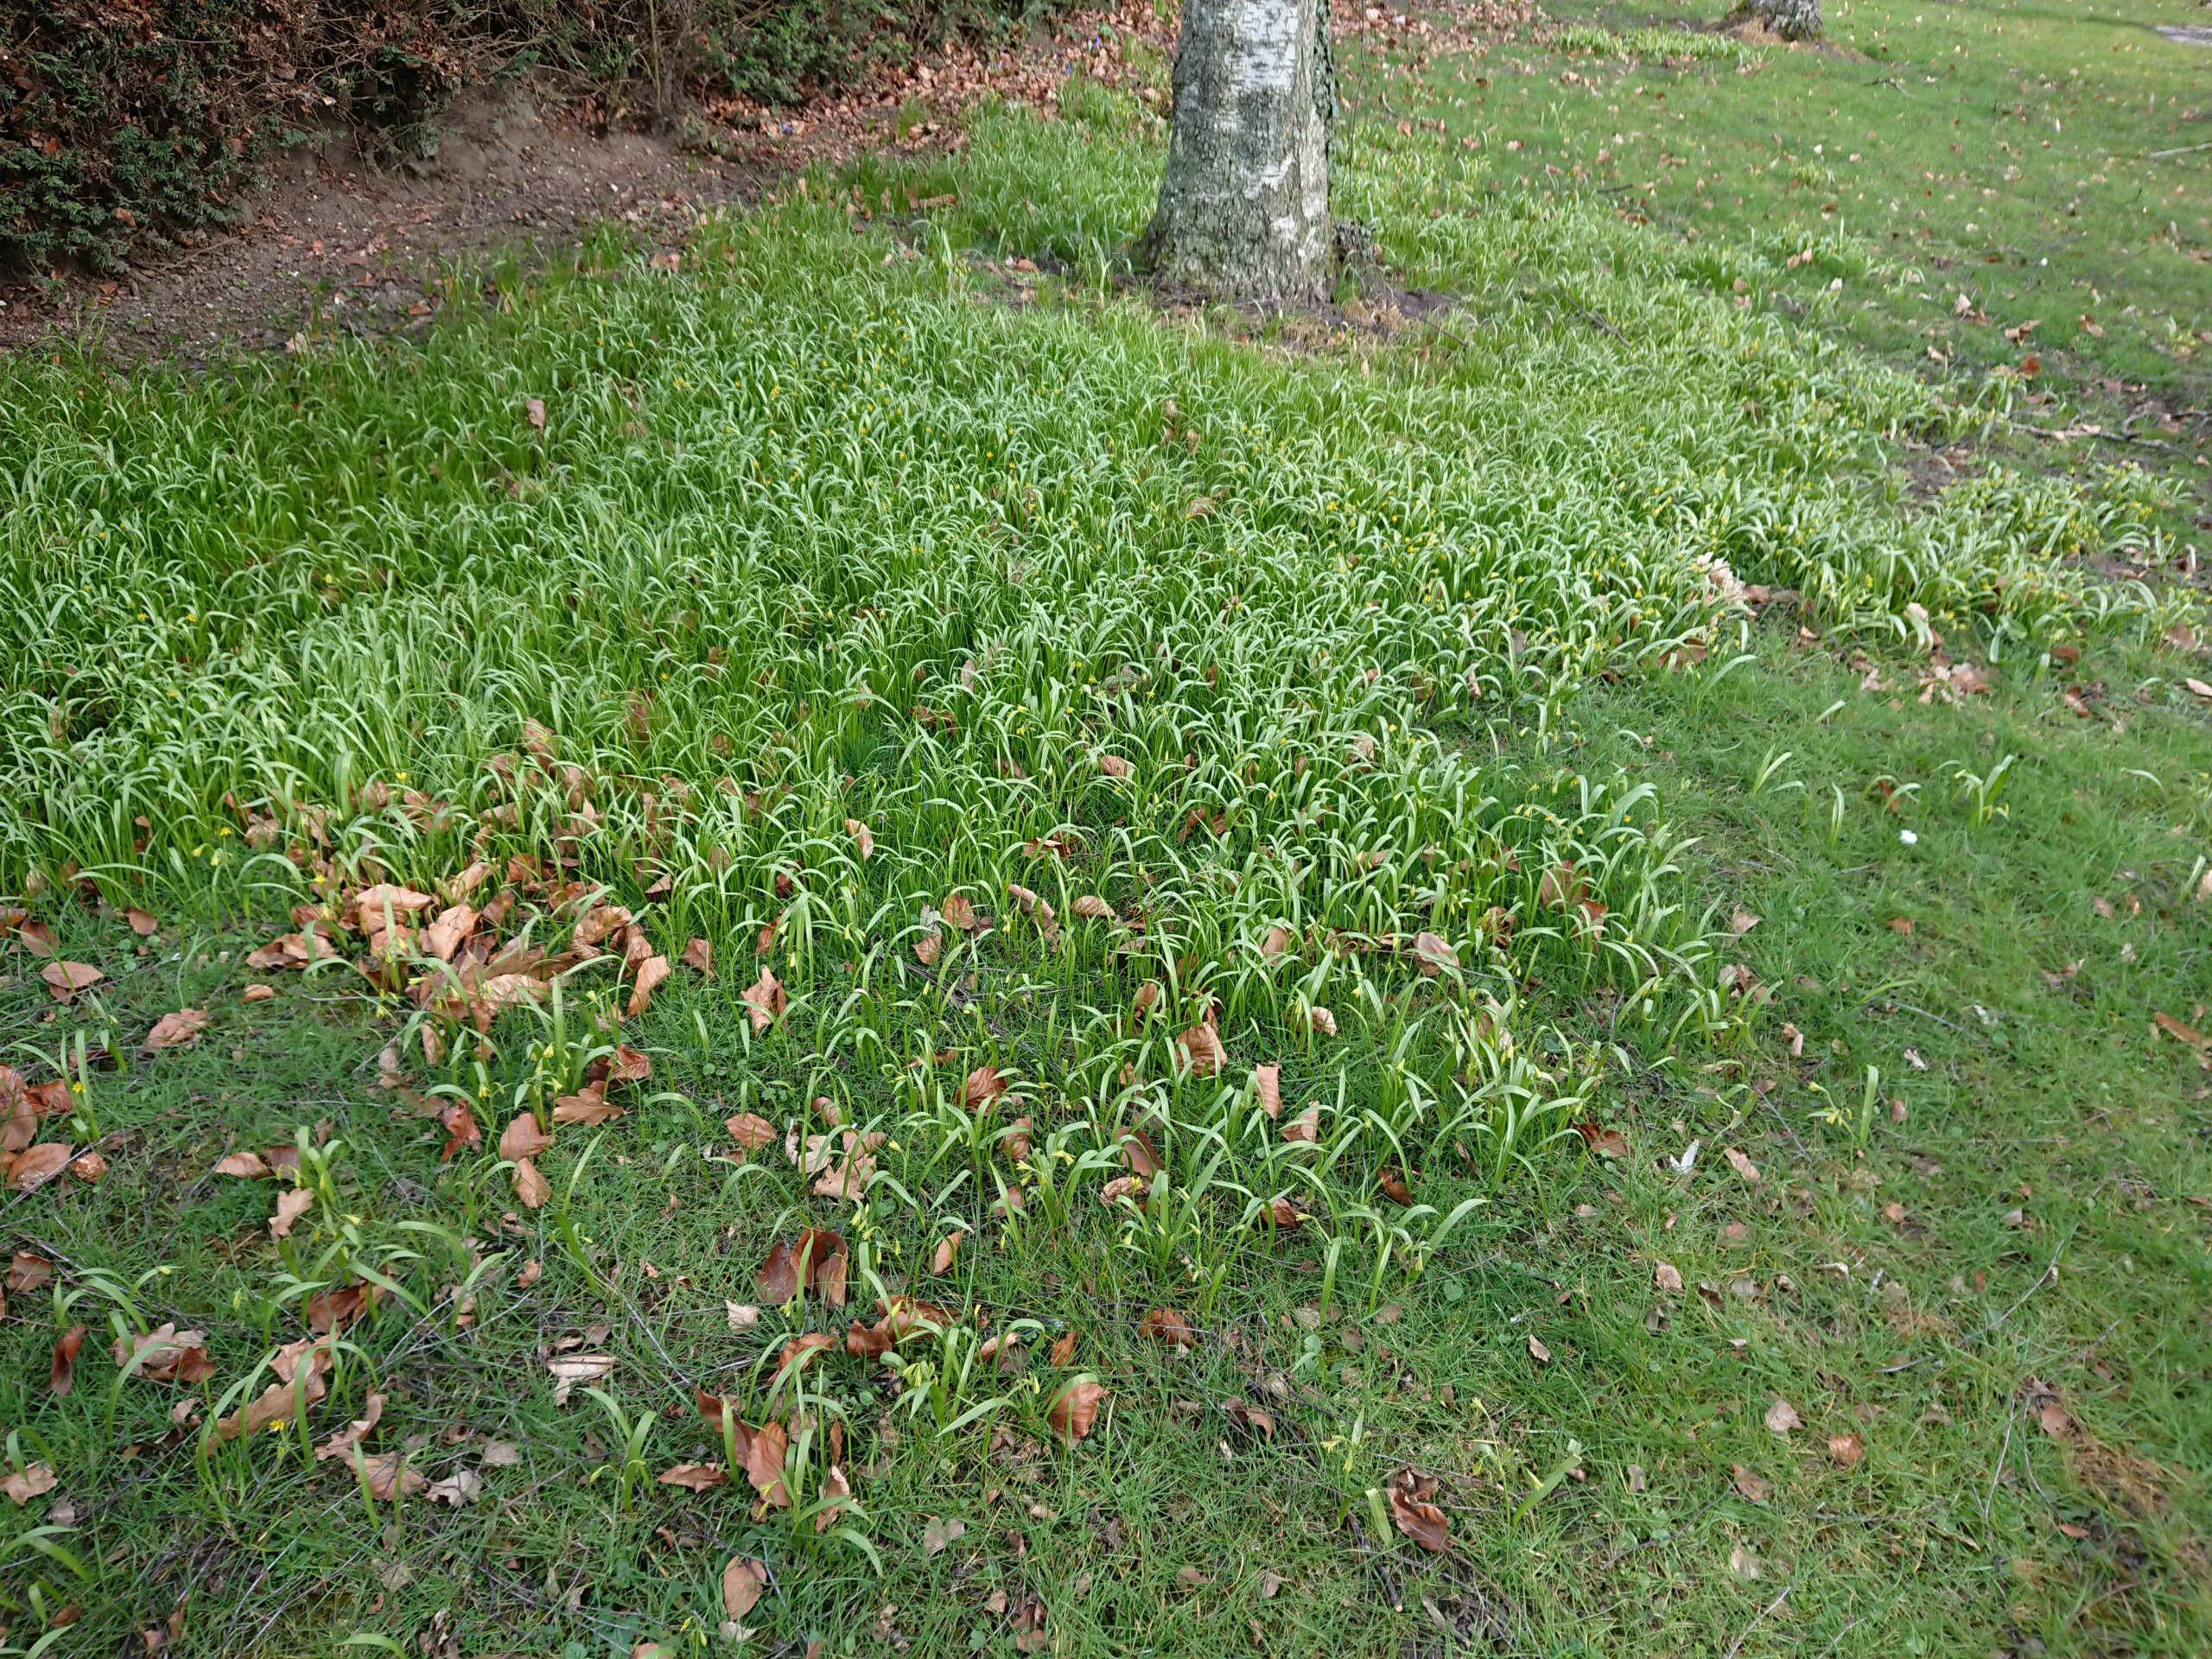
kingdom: Plantae
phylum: Tracheophyta
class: Liliopsida
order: Liliales
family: Liliaceae
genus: Gagea
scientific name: Gagea lutea
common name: Almindelig guldstjerne
